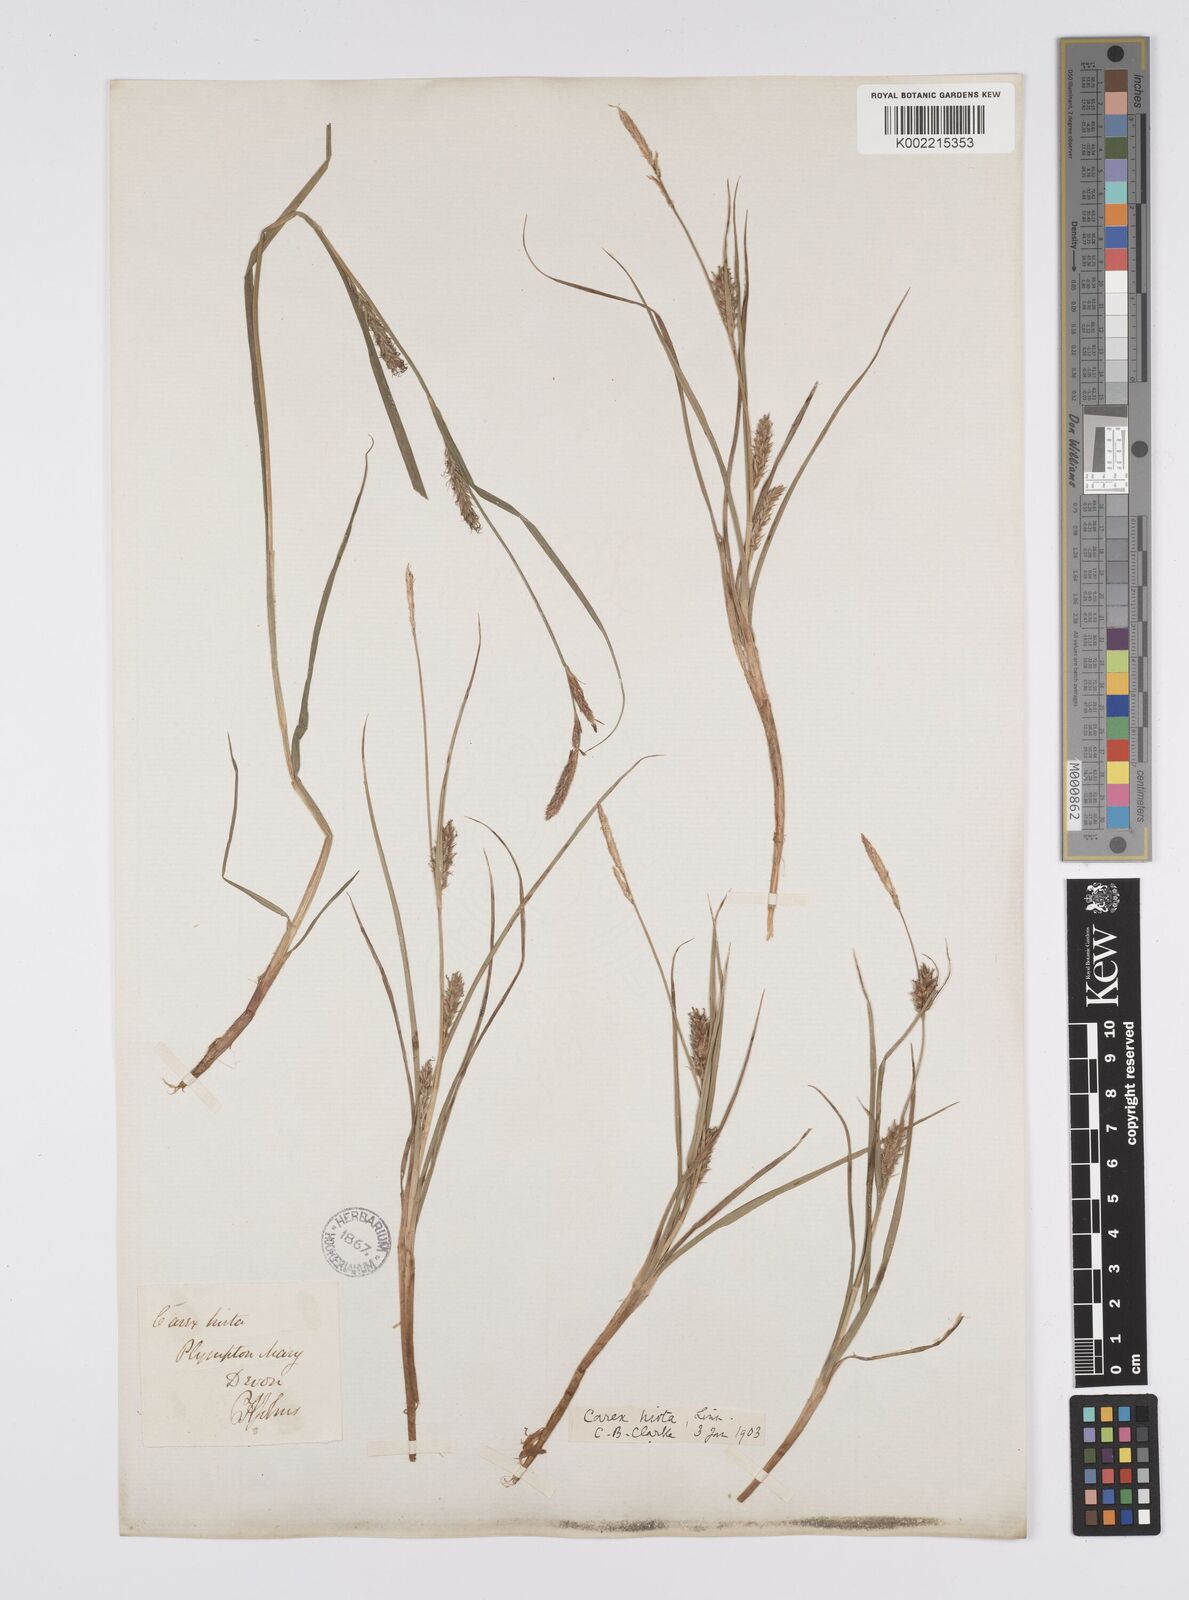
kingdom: Plantae
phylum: Tracheophyta
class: Liliopsida
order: Poales
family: Cyperaceae
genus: Carex
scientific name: Carex hirta
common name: Hairy sedge
